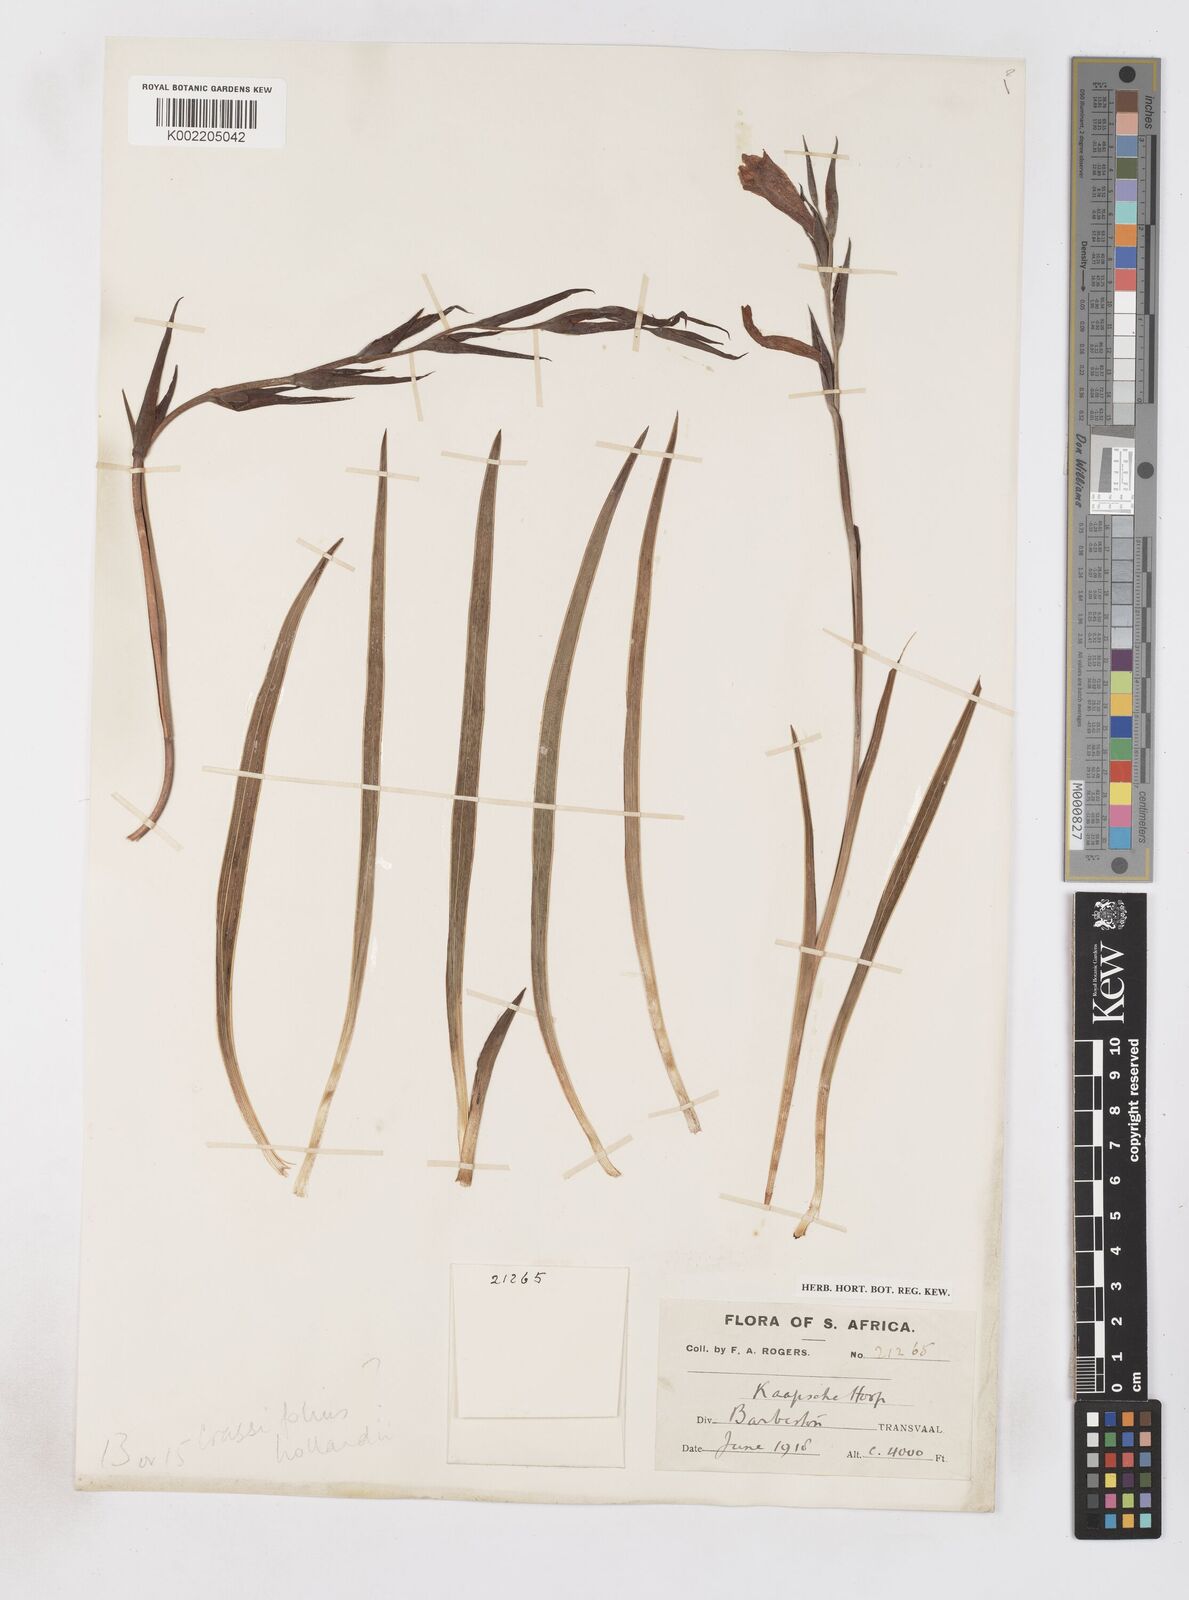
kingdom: Plantae
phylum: Tracheophyta
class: Liliopsida
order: Asparagales
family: Iridaceae
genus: Gladiolus
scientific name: Gladiolus ecklonii
